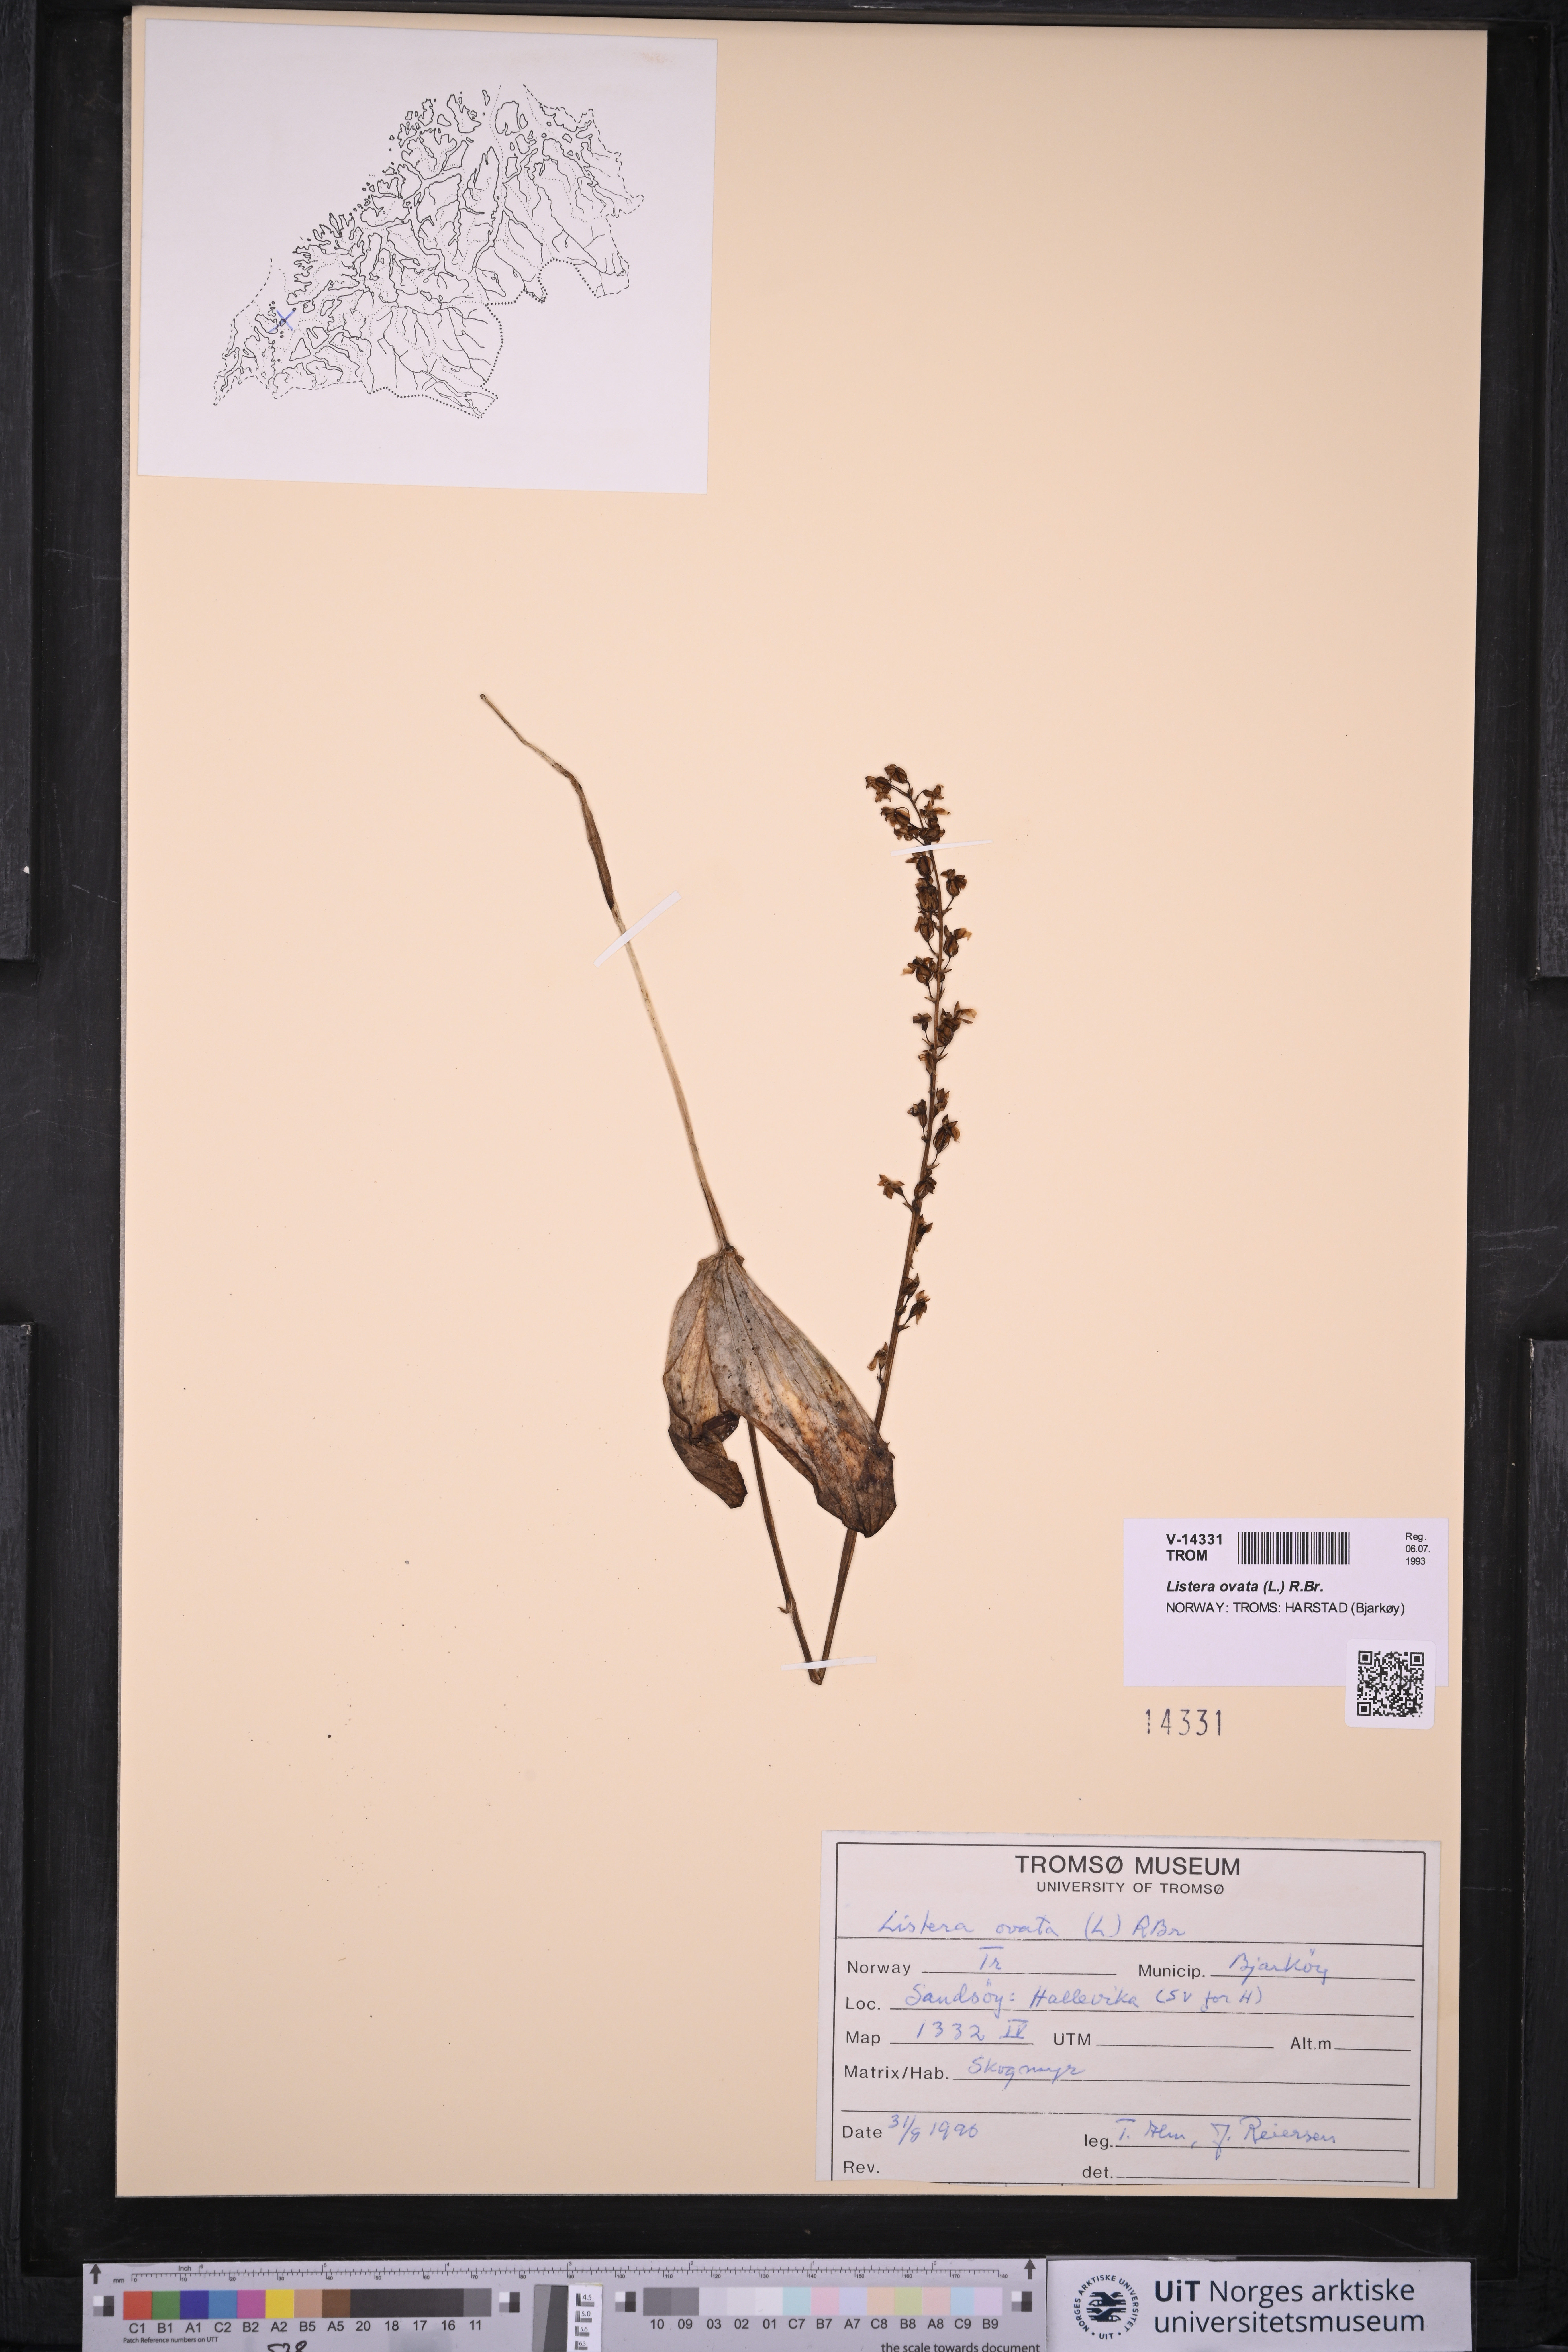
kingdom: Plantae
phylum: Tracheophyta
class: Liliopsida
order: Asparagales
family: Orchidaceae
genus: Neottia
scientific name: Neottia ovata
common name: Common twayblade
